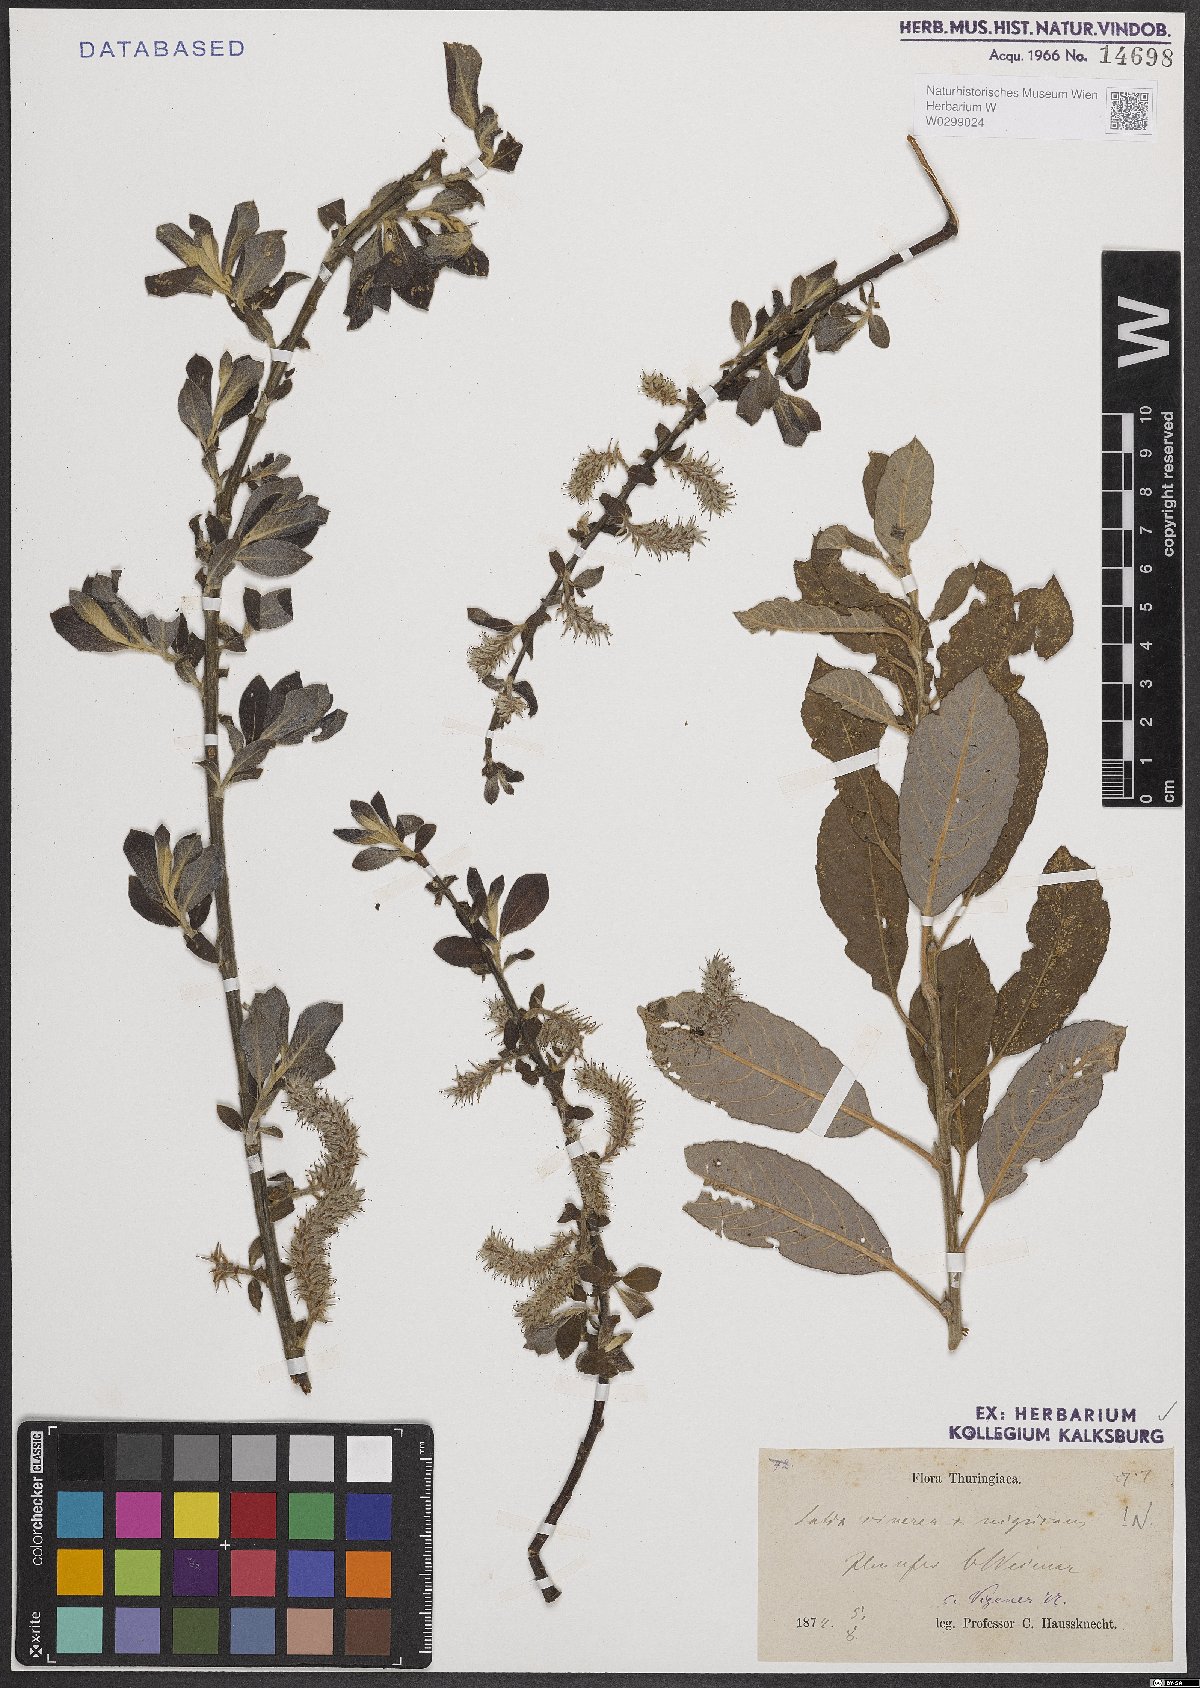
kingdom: Plantae
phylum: Tracheophyta
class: Magnoliopsida
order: Malpighiales
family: Salicaceae
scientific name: Salicaceae
